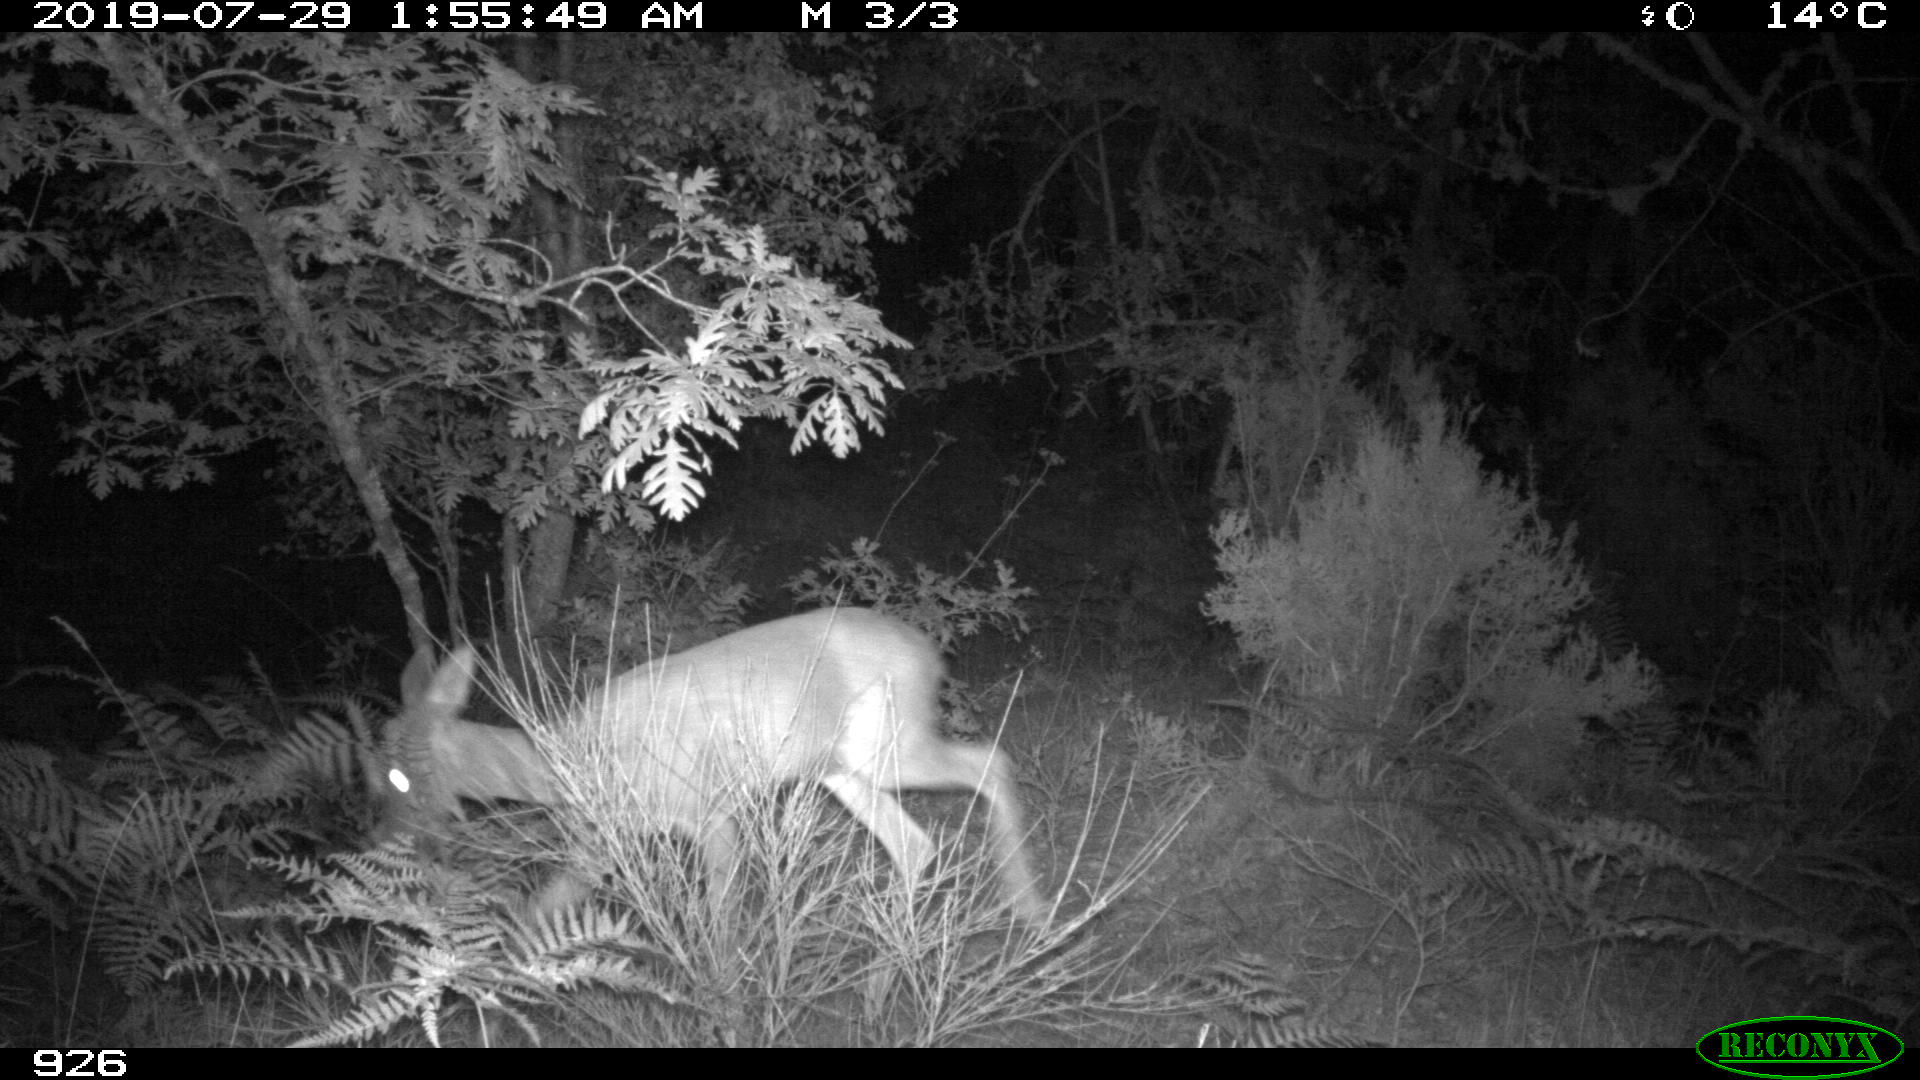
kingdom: Animalia
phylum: Chordata
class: Mammalia
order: Artiodactyla
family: Cervidae
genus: Capreolus
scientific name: Capreolus capreolus
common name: Western roe deer
